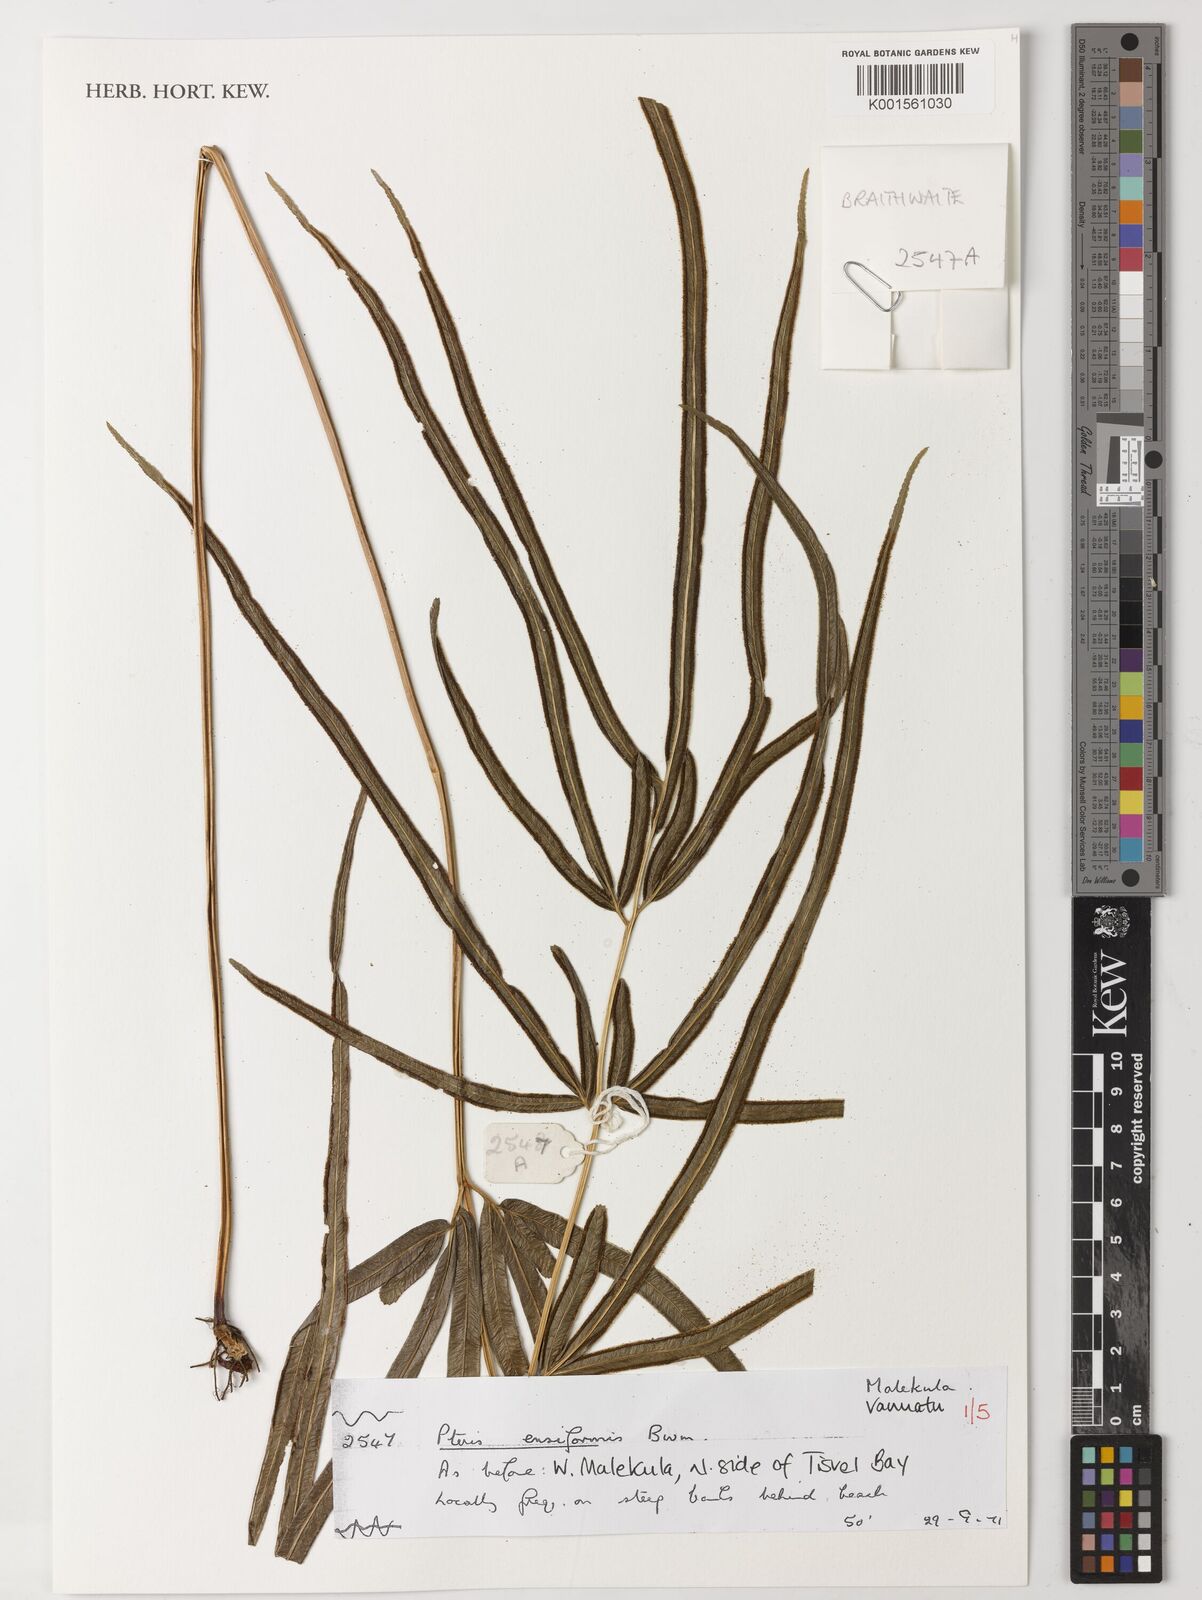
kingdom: Plantae
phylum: Tracheophyta
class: Polypodiopsida
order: Polypodiales
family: Pteridaceae
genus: Pteris
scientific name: Pteris ensiformis
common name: Sword brake
